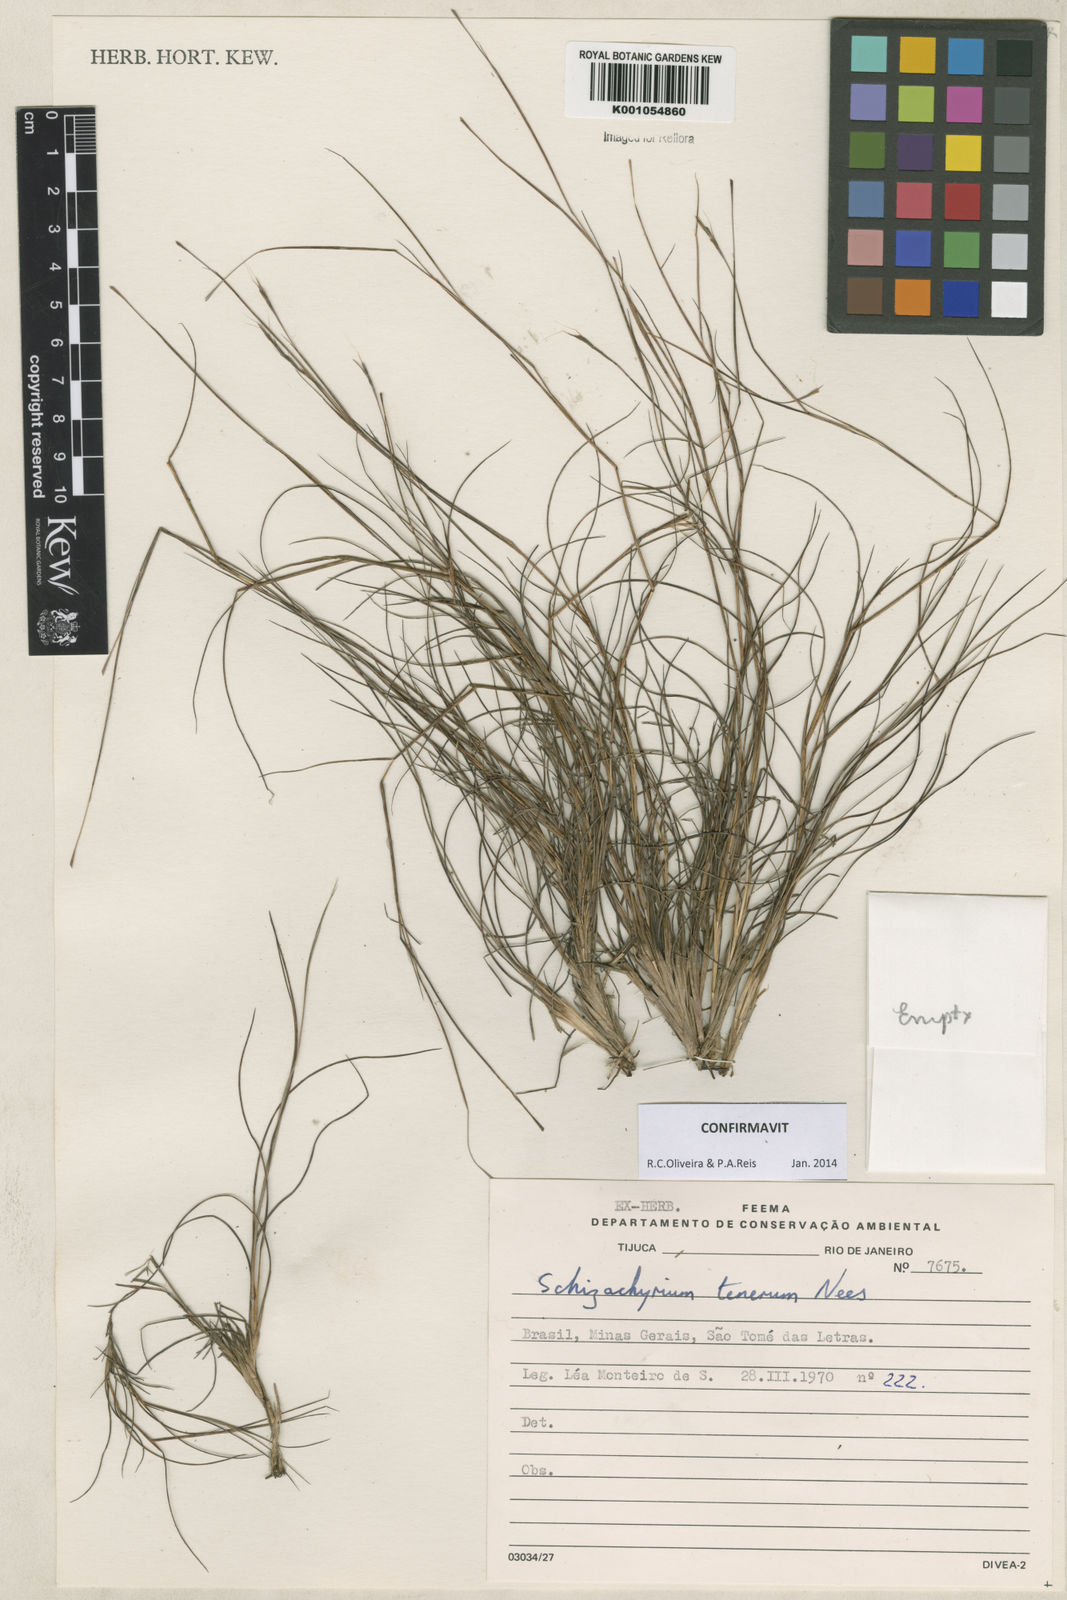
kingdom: Plantae
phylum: Tracheophyta
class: Liliopsida
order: Poales
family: Poaceae
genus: Andropogon
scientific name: Andropogon tener
